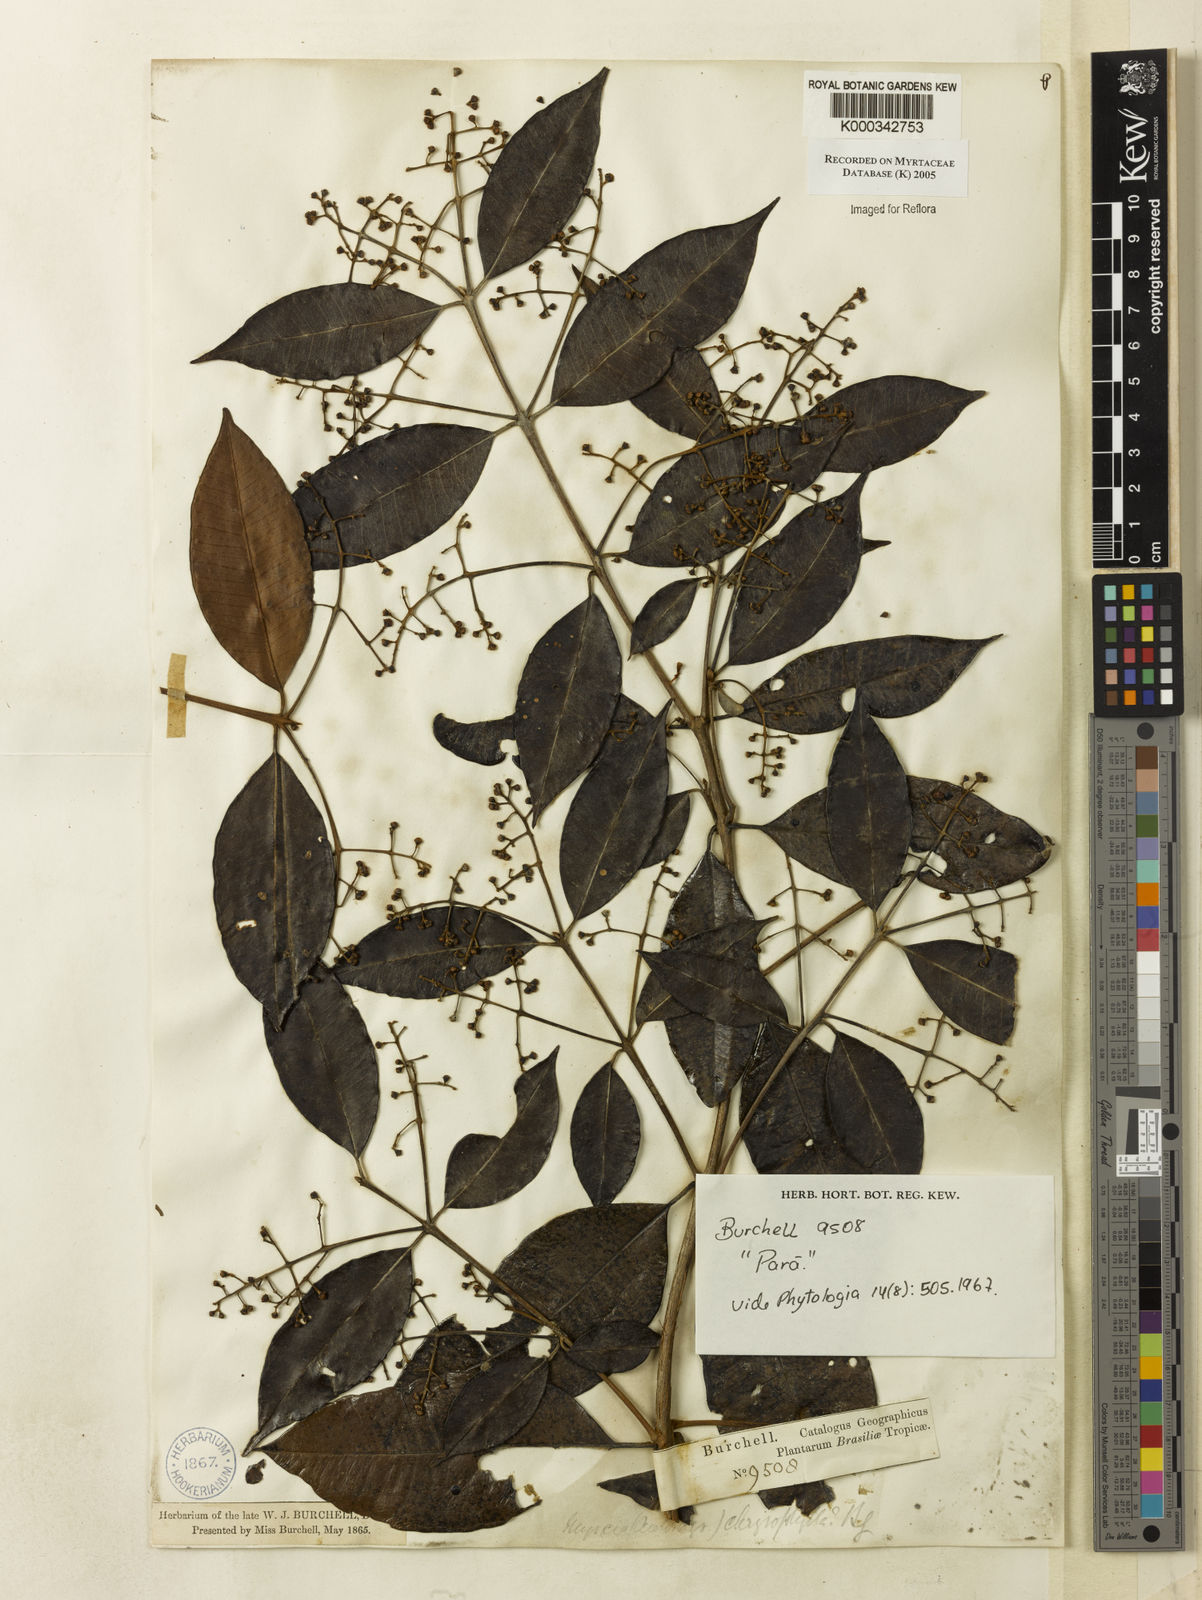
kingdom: Plantae
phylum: Tracheophyta
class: Magnoliopsida
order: Myrtales
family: Myrtaceae
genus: Myrcia
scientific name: Myrcia cuprea
